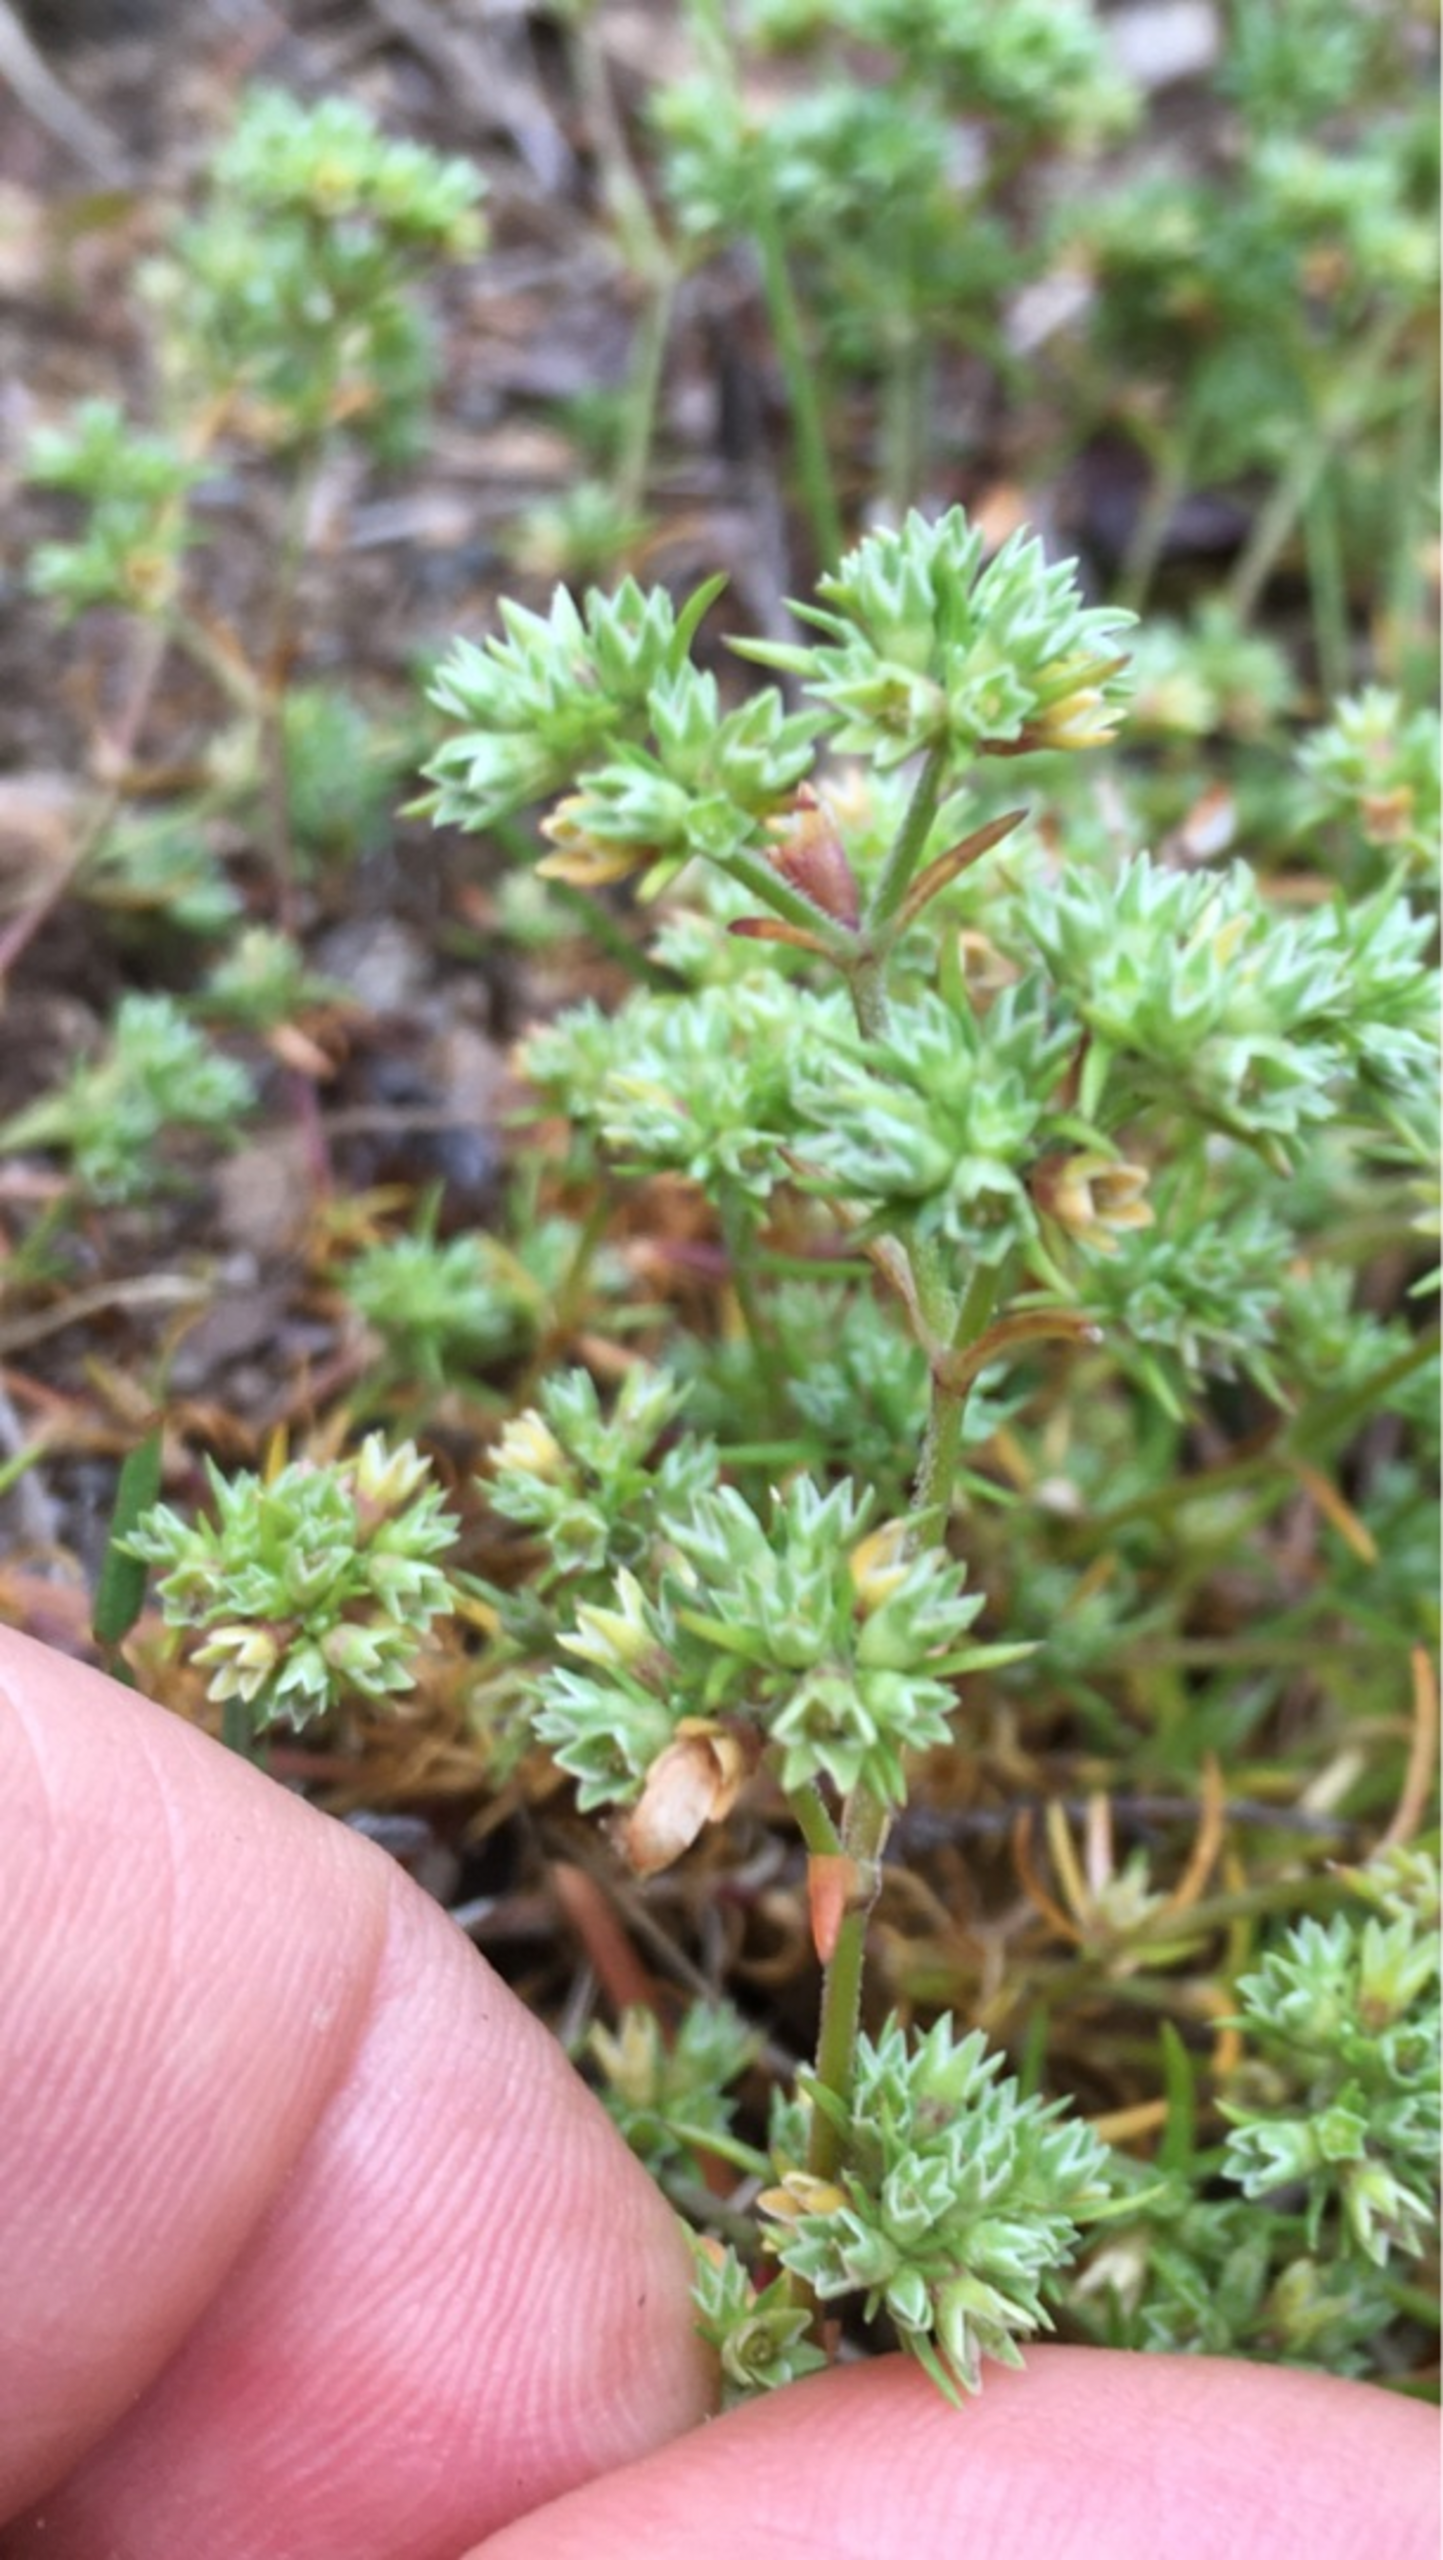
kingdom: Plantae
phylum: Tracheophyta
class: Magnoliopsida
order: Caryophyllales
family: Caryophyllaceae
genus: Scleranthus
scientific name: Scleranthus annuus
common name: Enårig knavel
